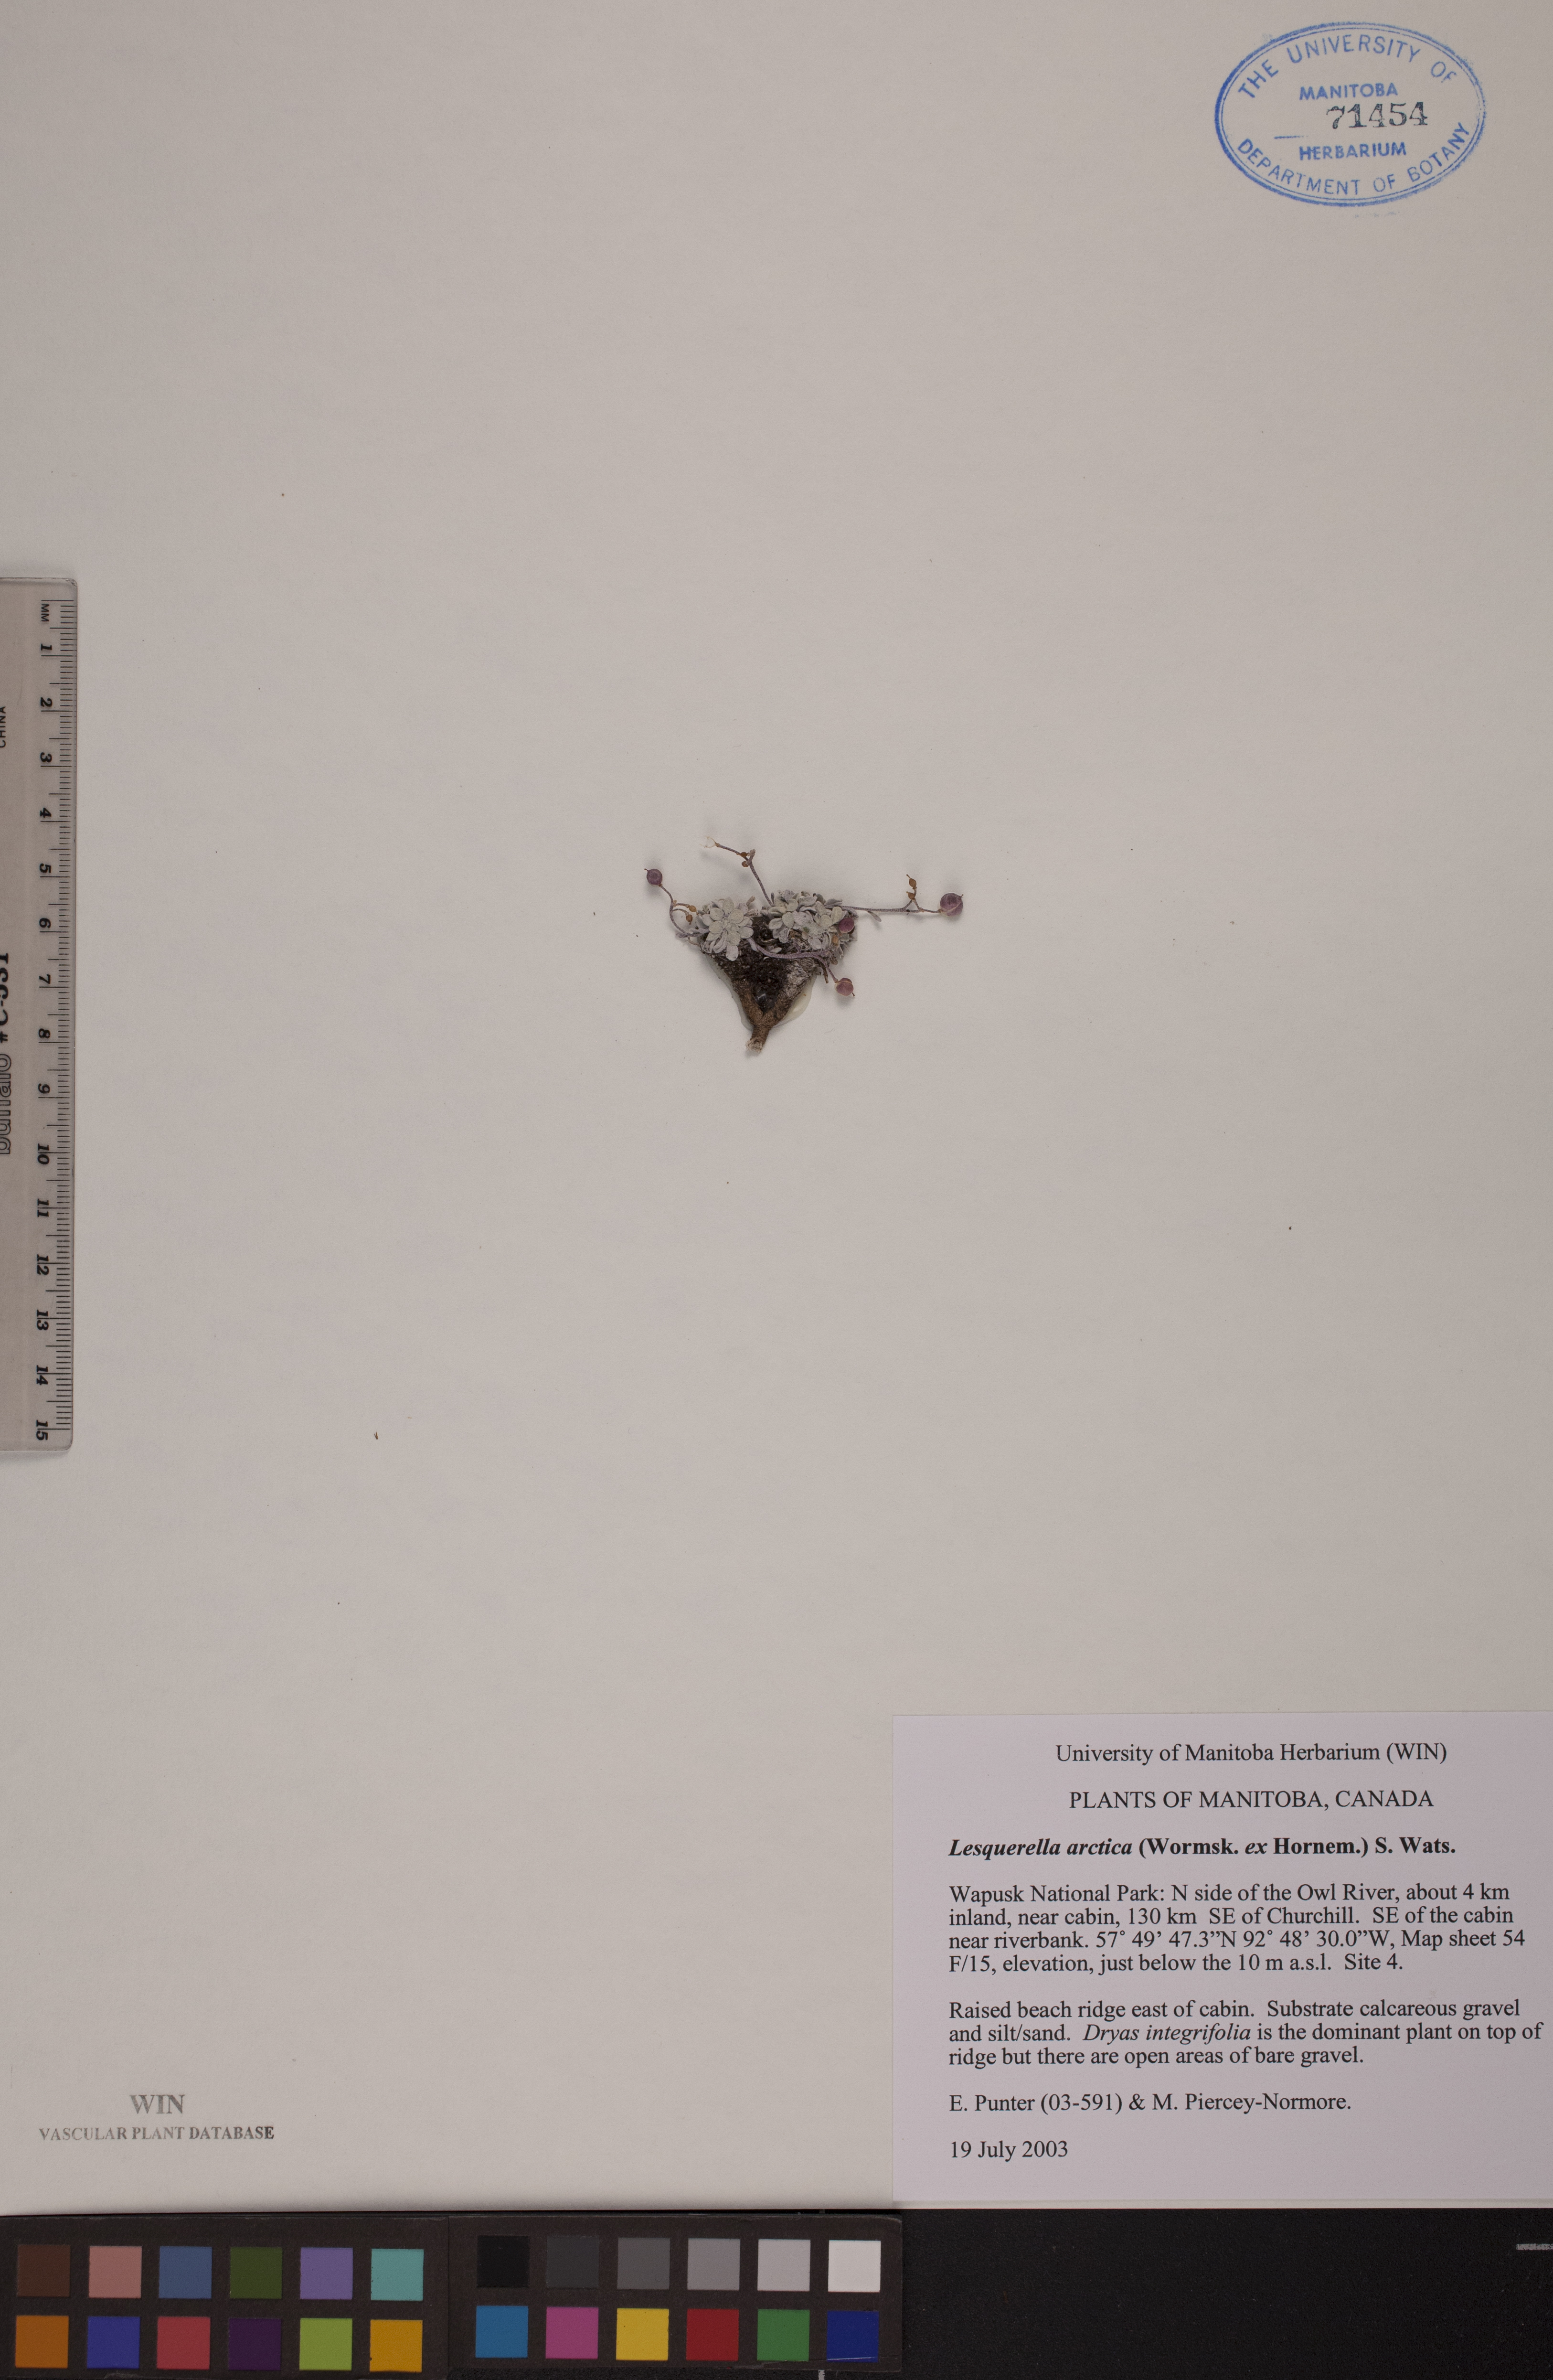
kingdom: Plantae
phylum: Tracheophyta
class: Magnoliopsida
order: Brassicales
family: Brassicaceae
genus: Physaria
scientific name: Physaria arctica
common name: Arctic bladderpod
